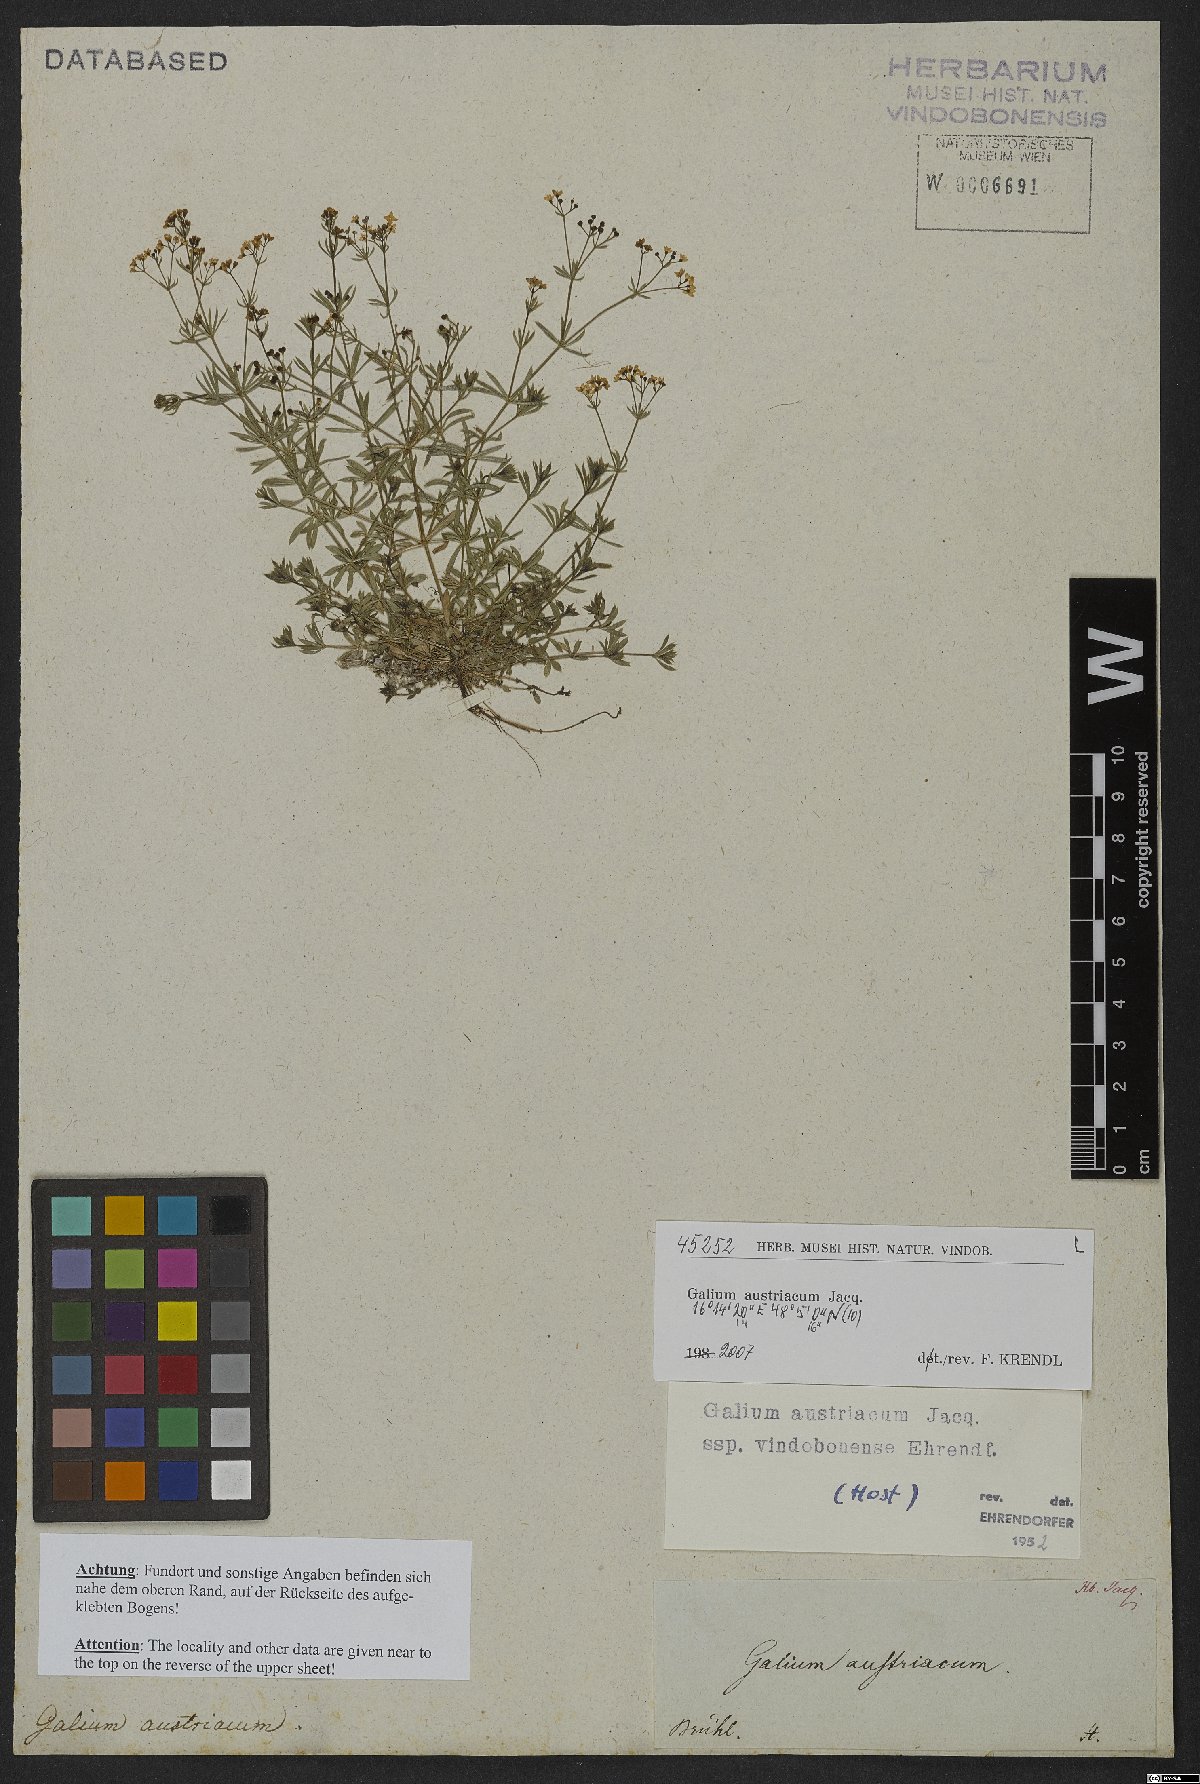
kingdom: Plantae
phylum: Tracheophyta
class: Magnoliopsida
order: Gentianales
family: Rubiaceae
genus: Galium
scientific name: Galium austriacum
